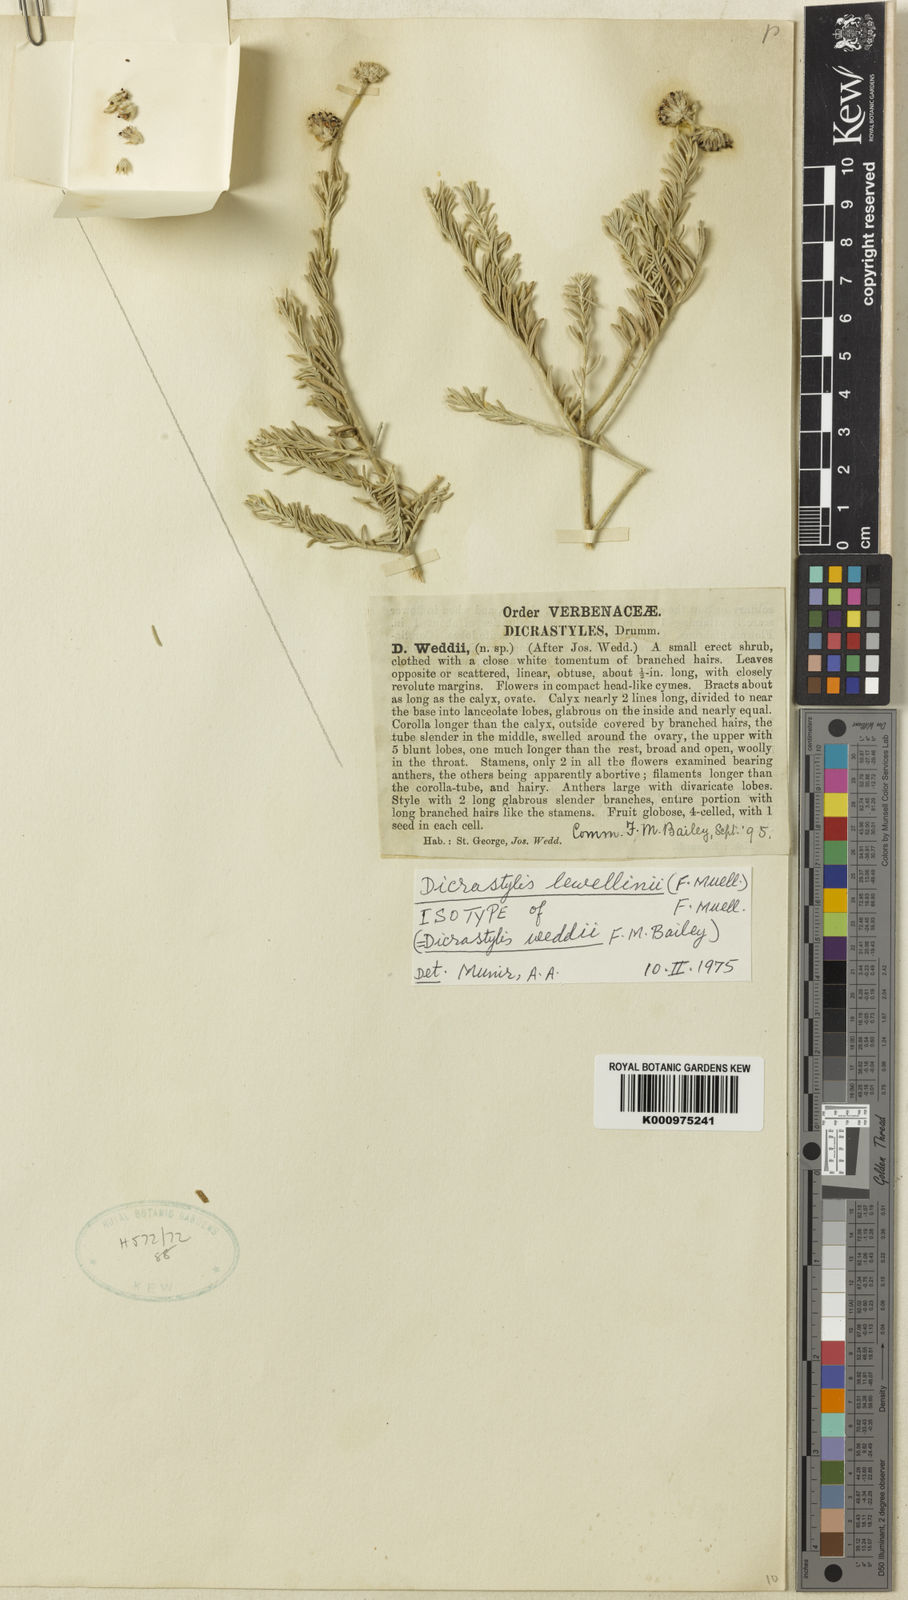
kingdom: Plantae
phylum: Tracheophyta
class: Magnoliopsida
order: Lamiales
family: Lamiaceae
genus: Dicrastylis
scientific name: Dicrastylis lewellinii
